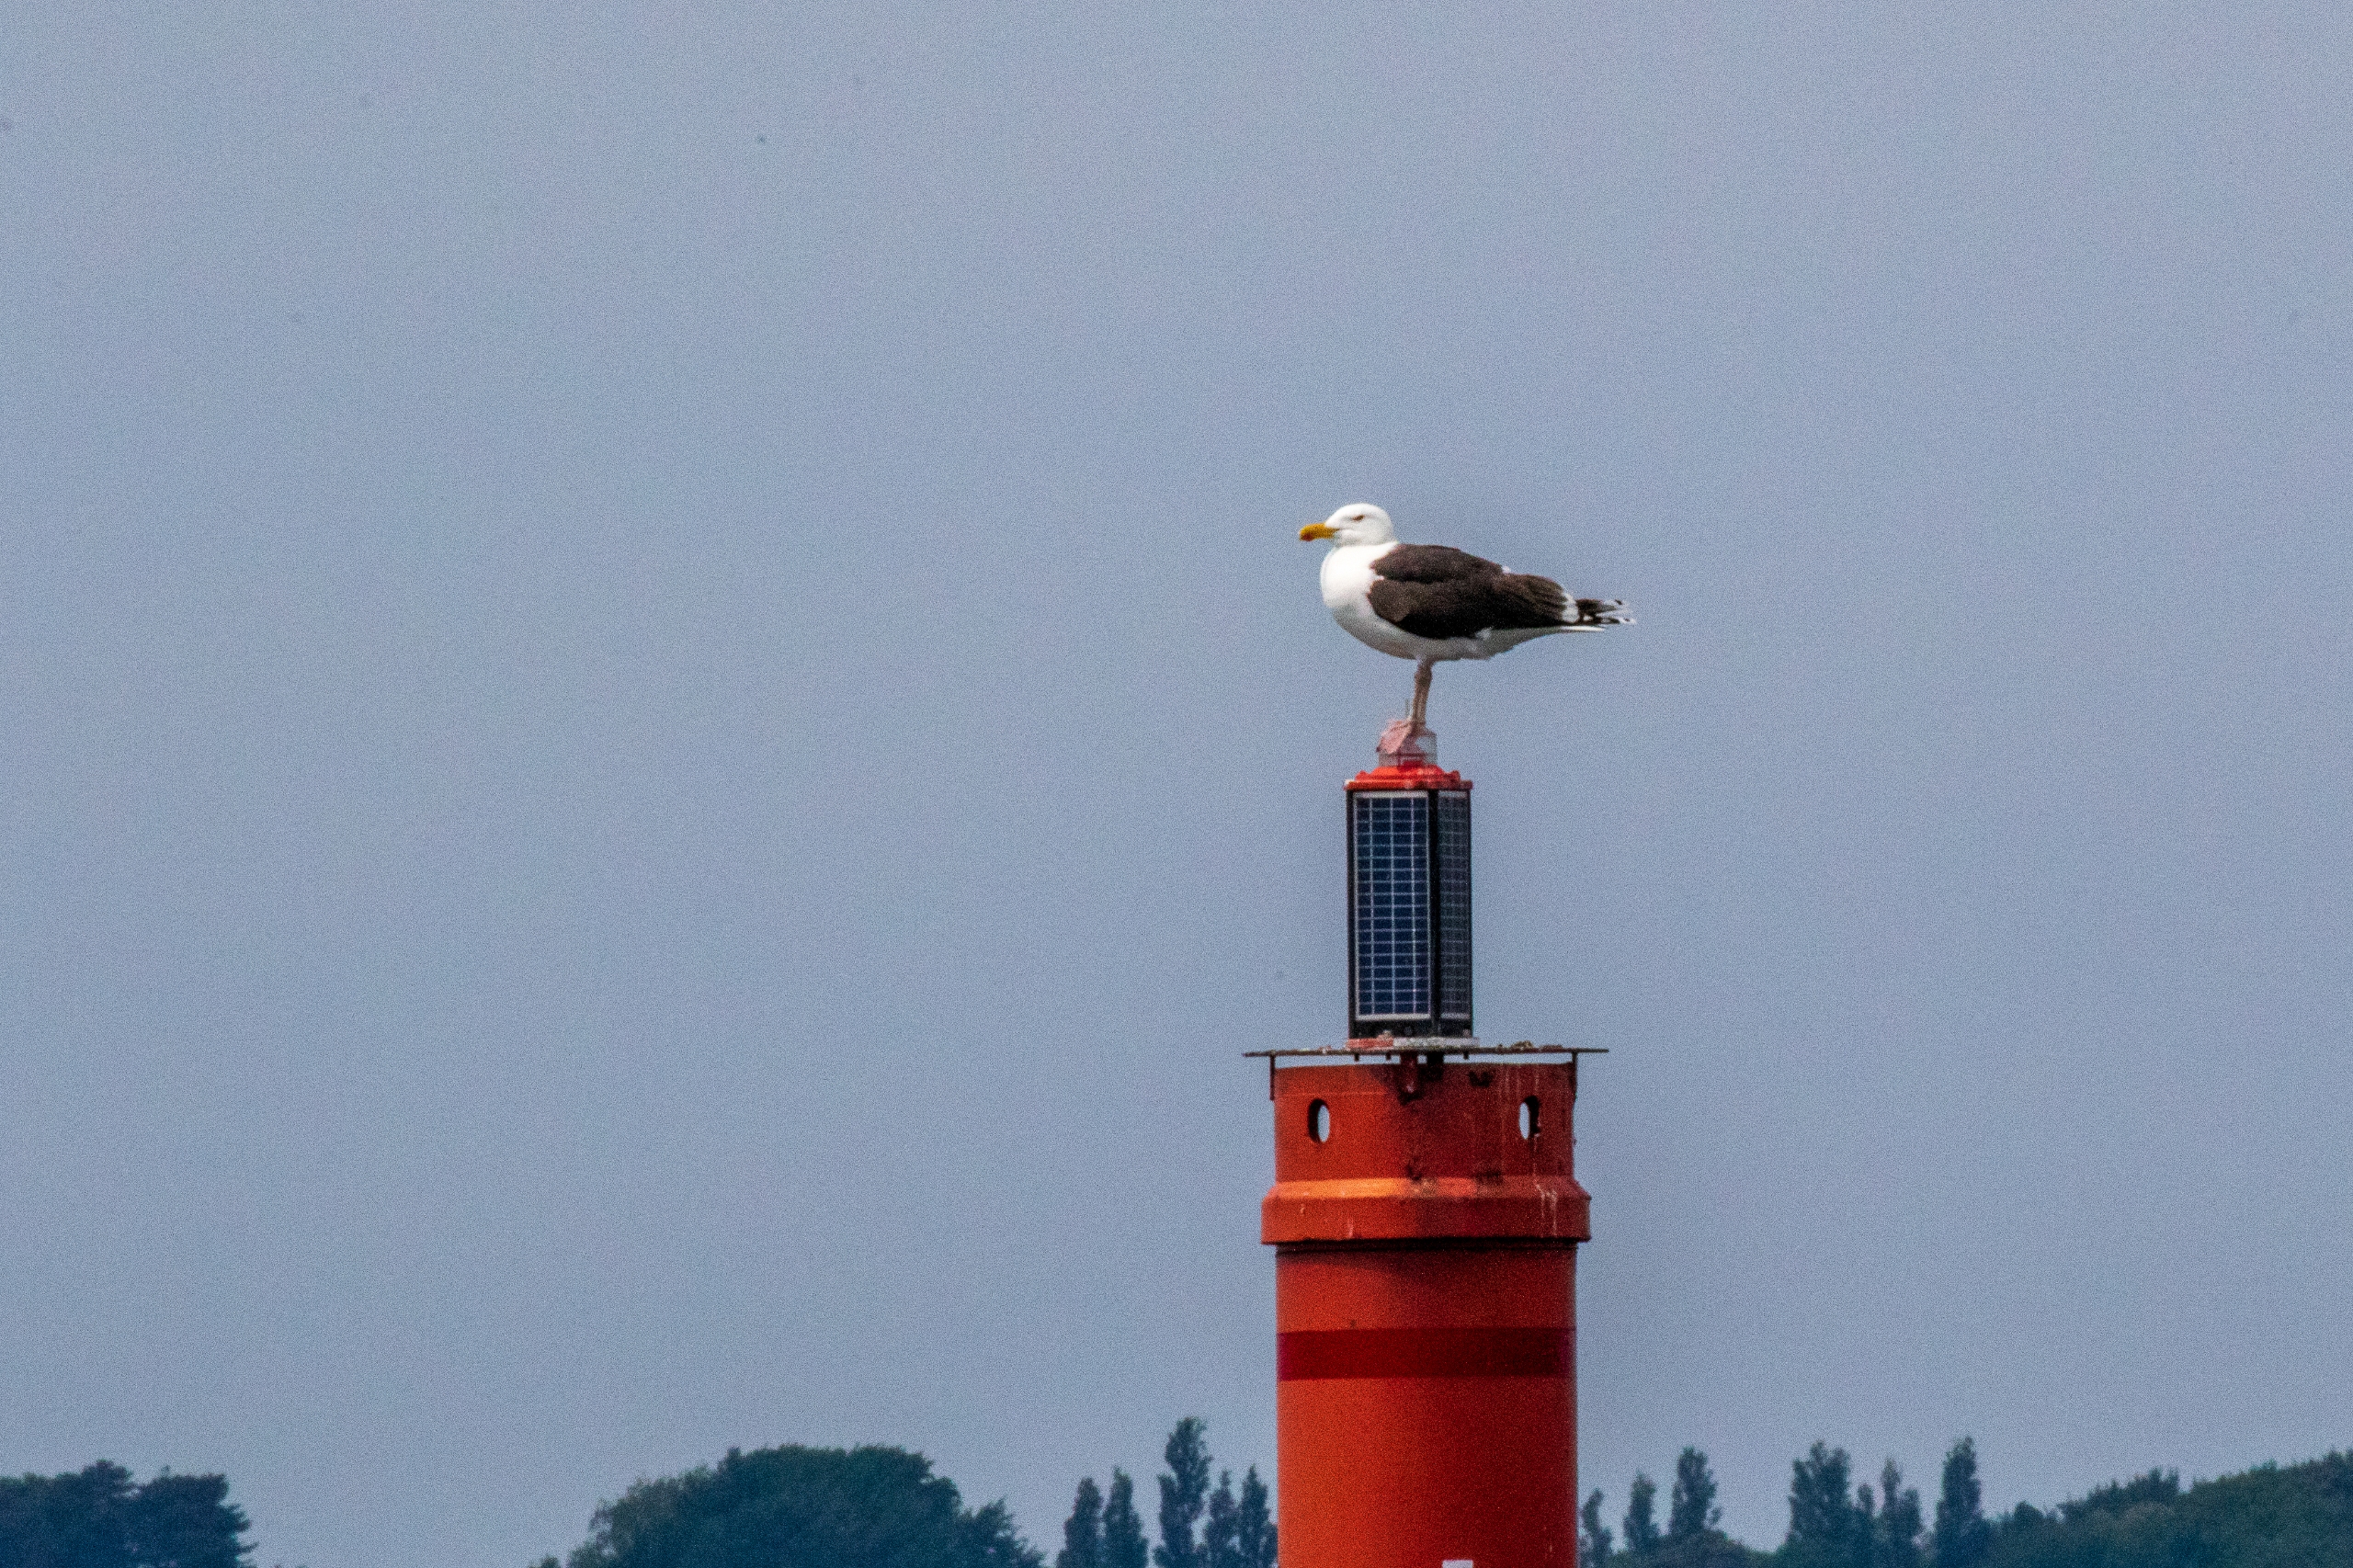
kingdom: Animalia
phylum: Chordata
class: Aves
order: Charadriiformes
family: Laridae
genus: Larus
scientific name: Larus marinus
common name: Svartbag
